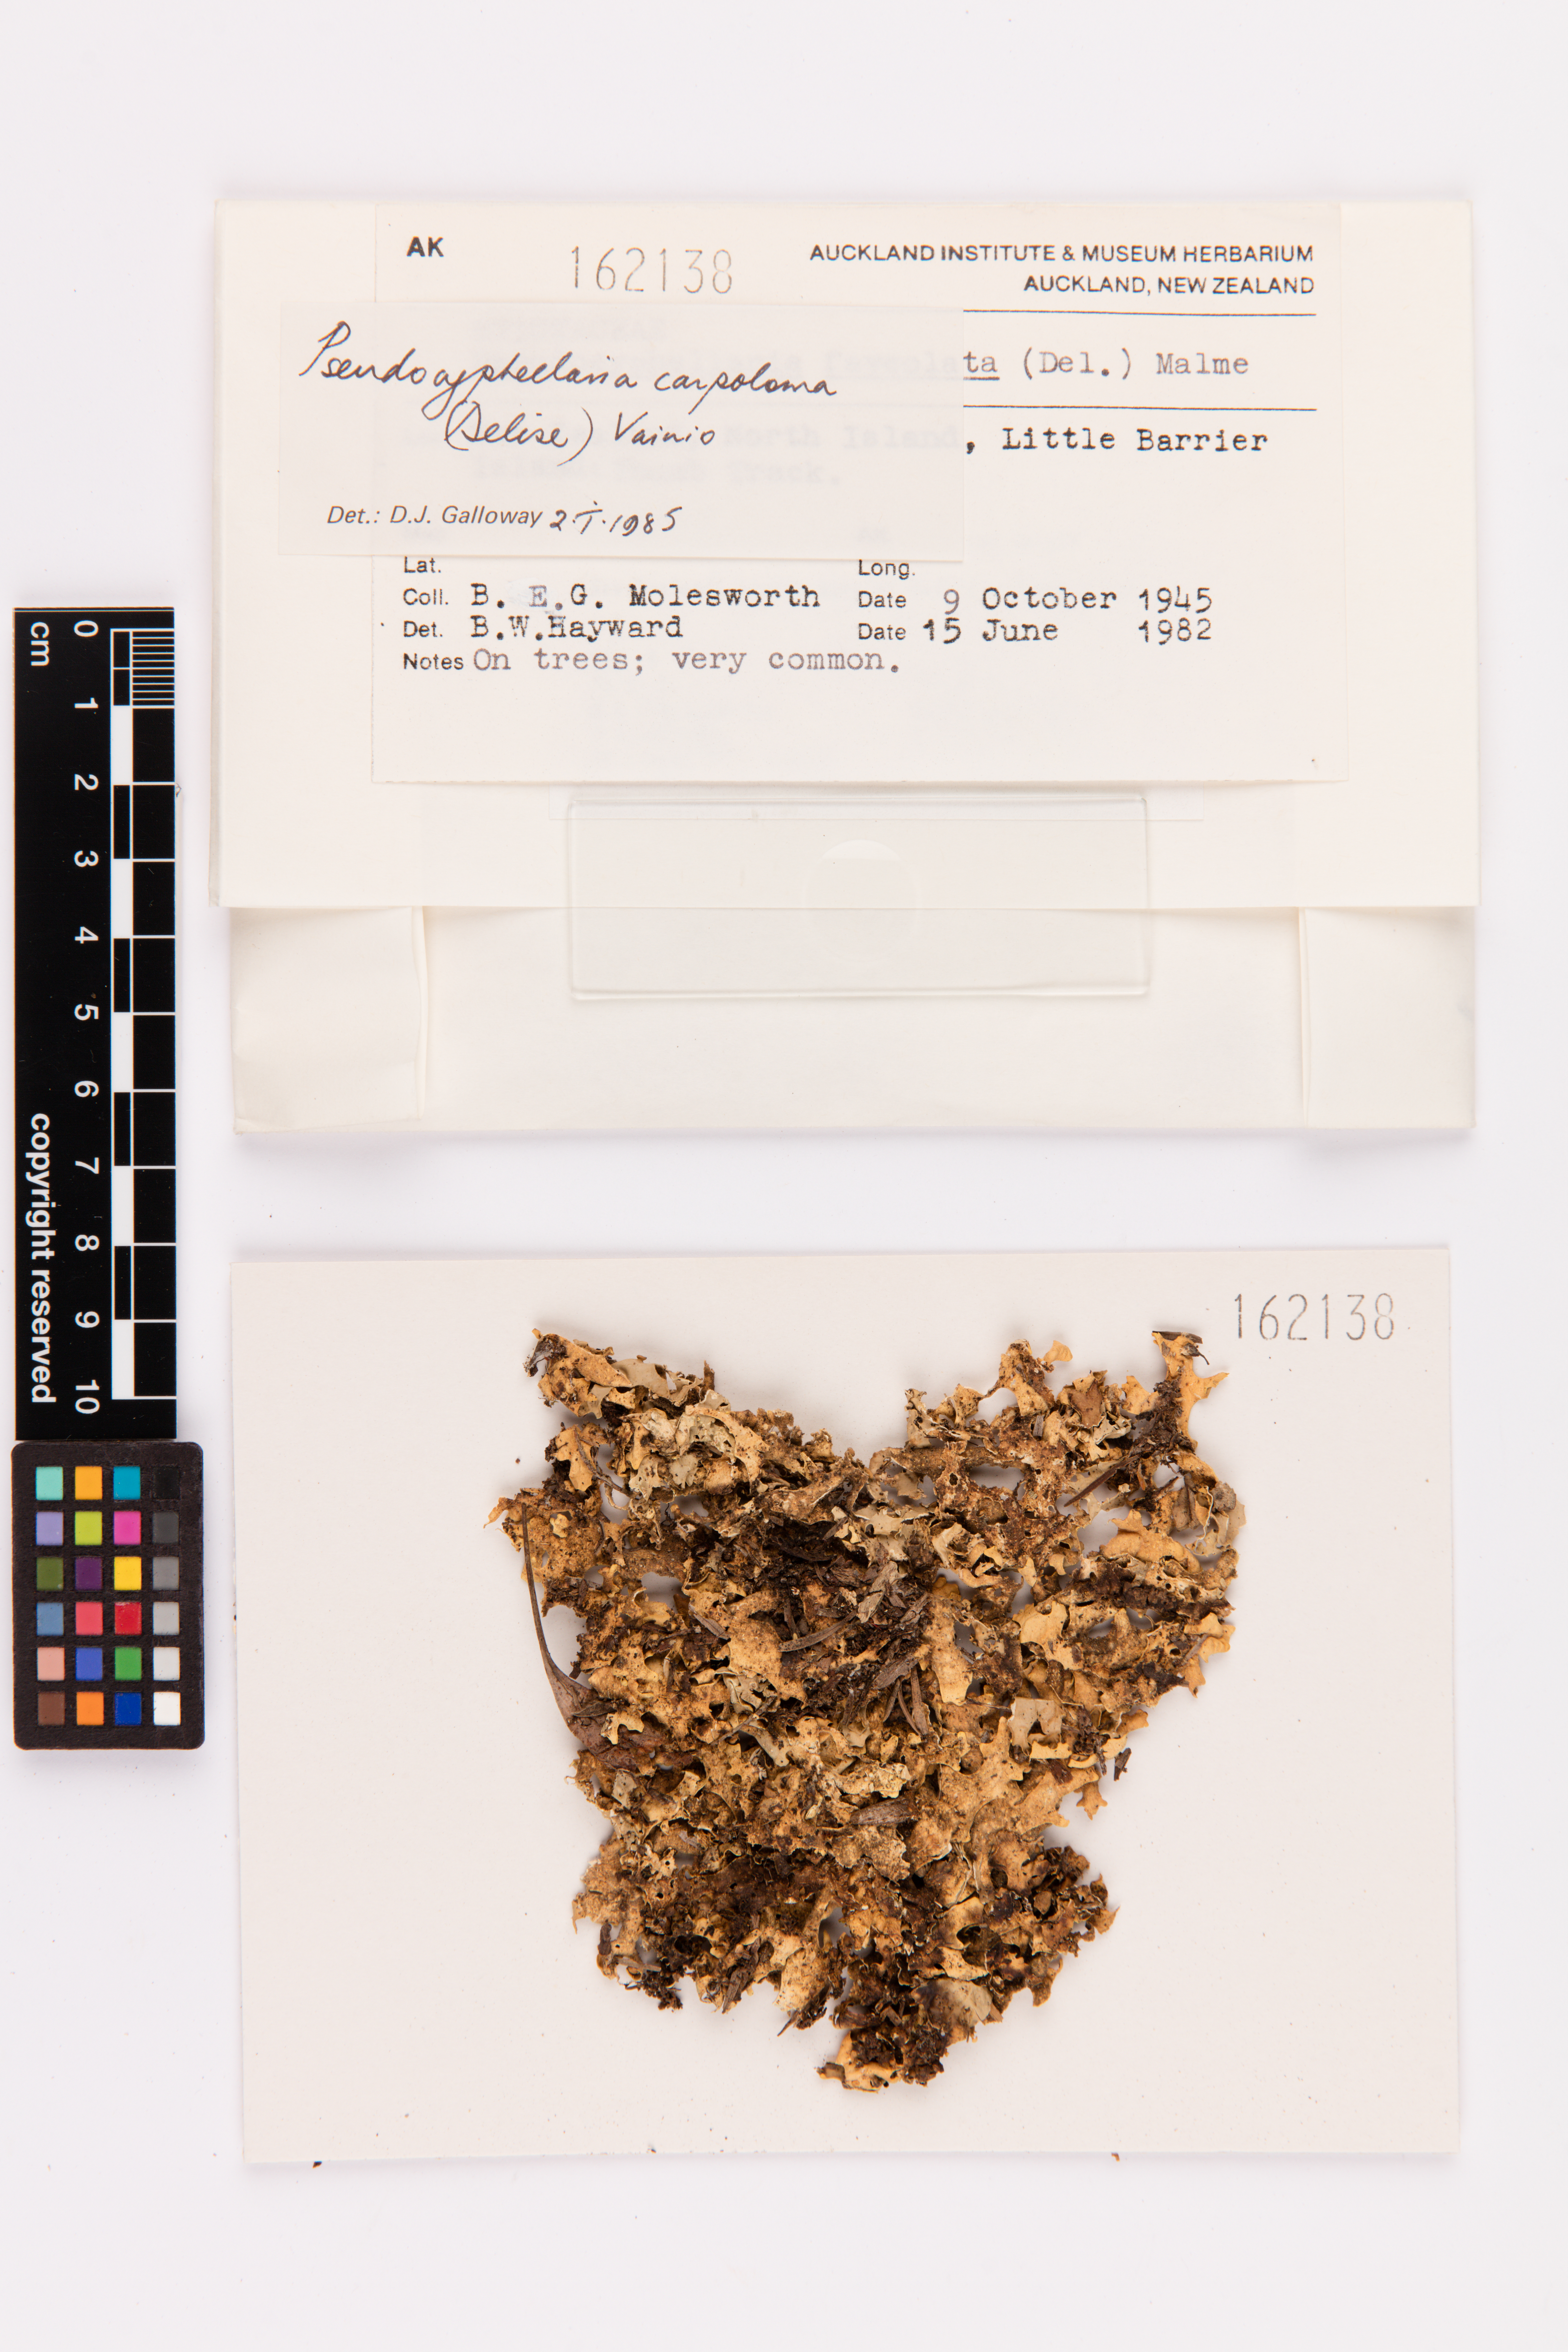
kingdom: Fungi
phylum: Ascomycota
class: Lecanoromycetes
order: Peltigerales
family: Lobariaceae
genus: Pseudocyphellaria
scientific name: Pseudocyphellaria carpoloma
